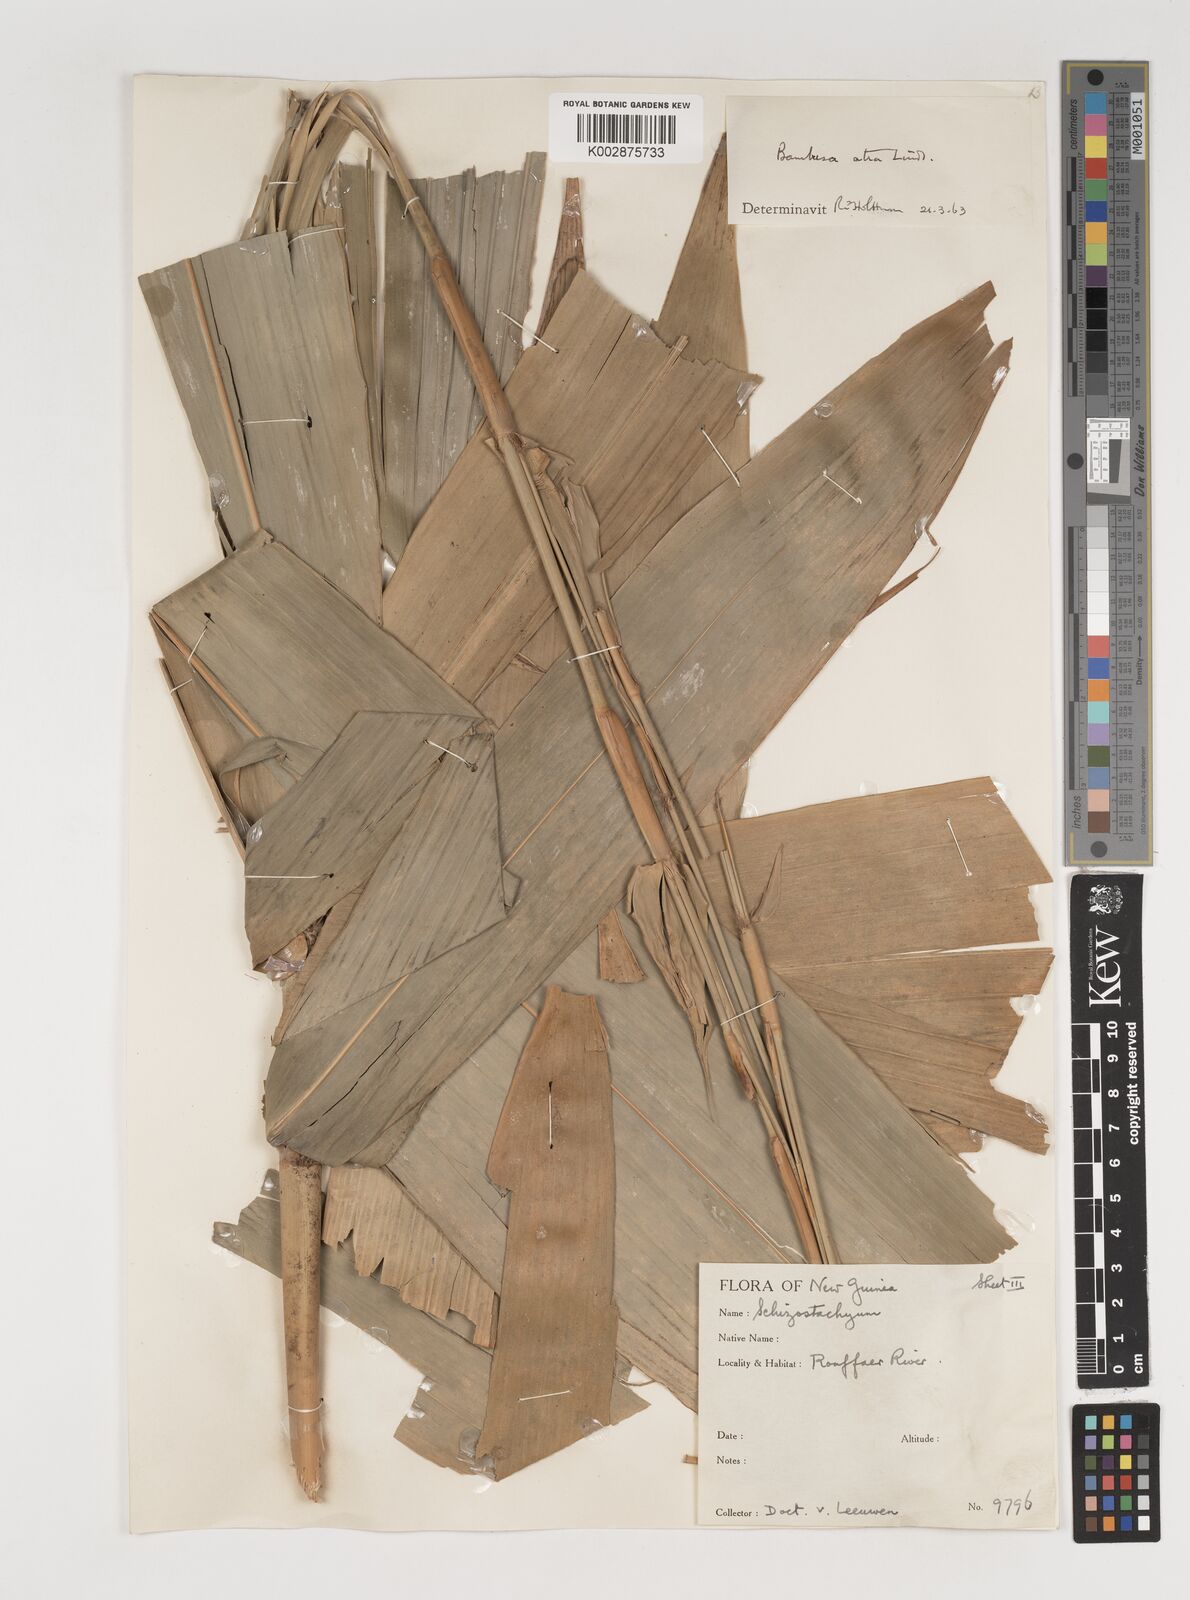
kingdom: Plantae
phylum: Tracheophyta
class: Liliopsida
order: Poales
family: Poaceae
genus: Neololeba
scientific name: Neololeba atra
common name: Cape bamboo
